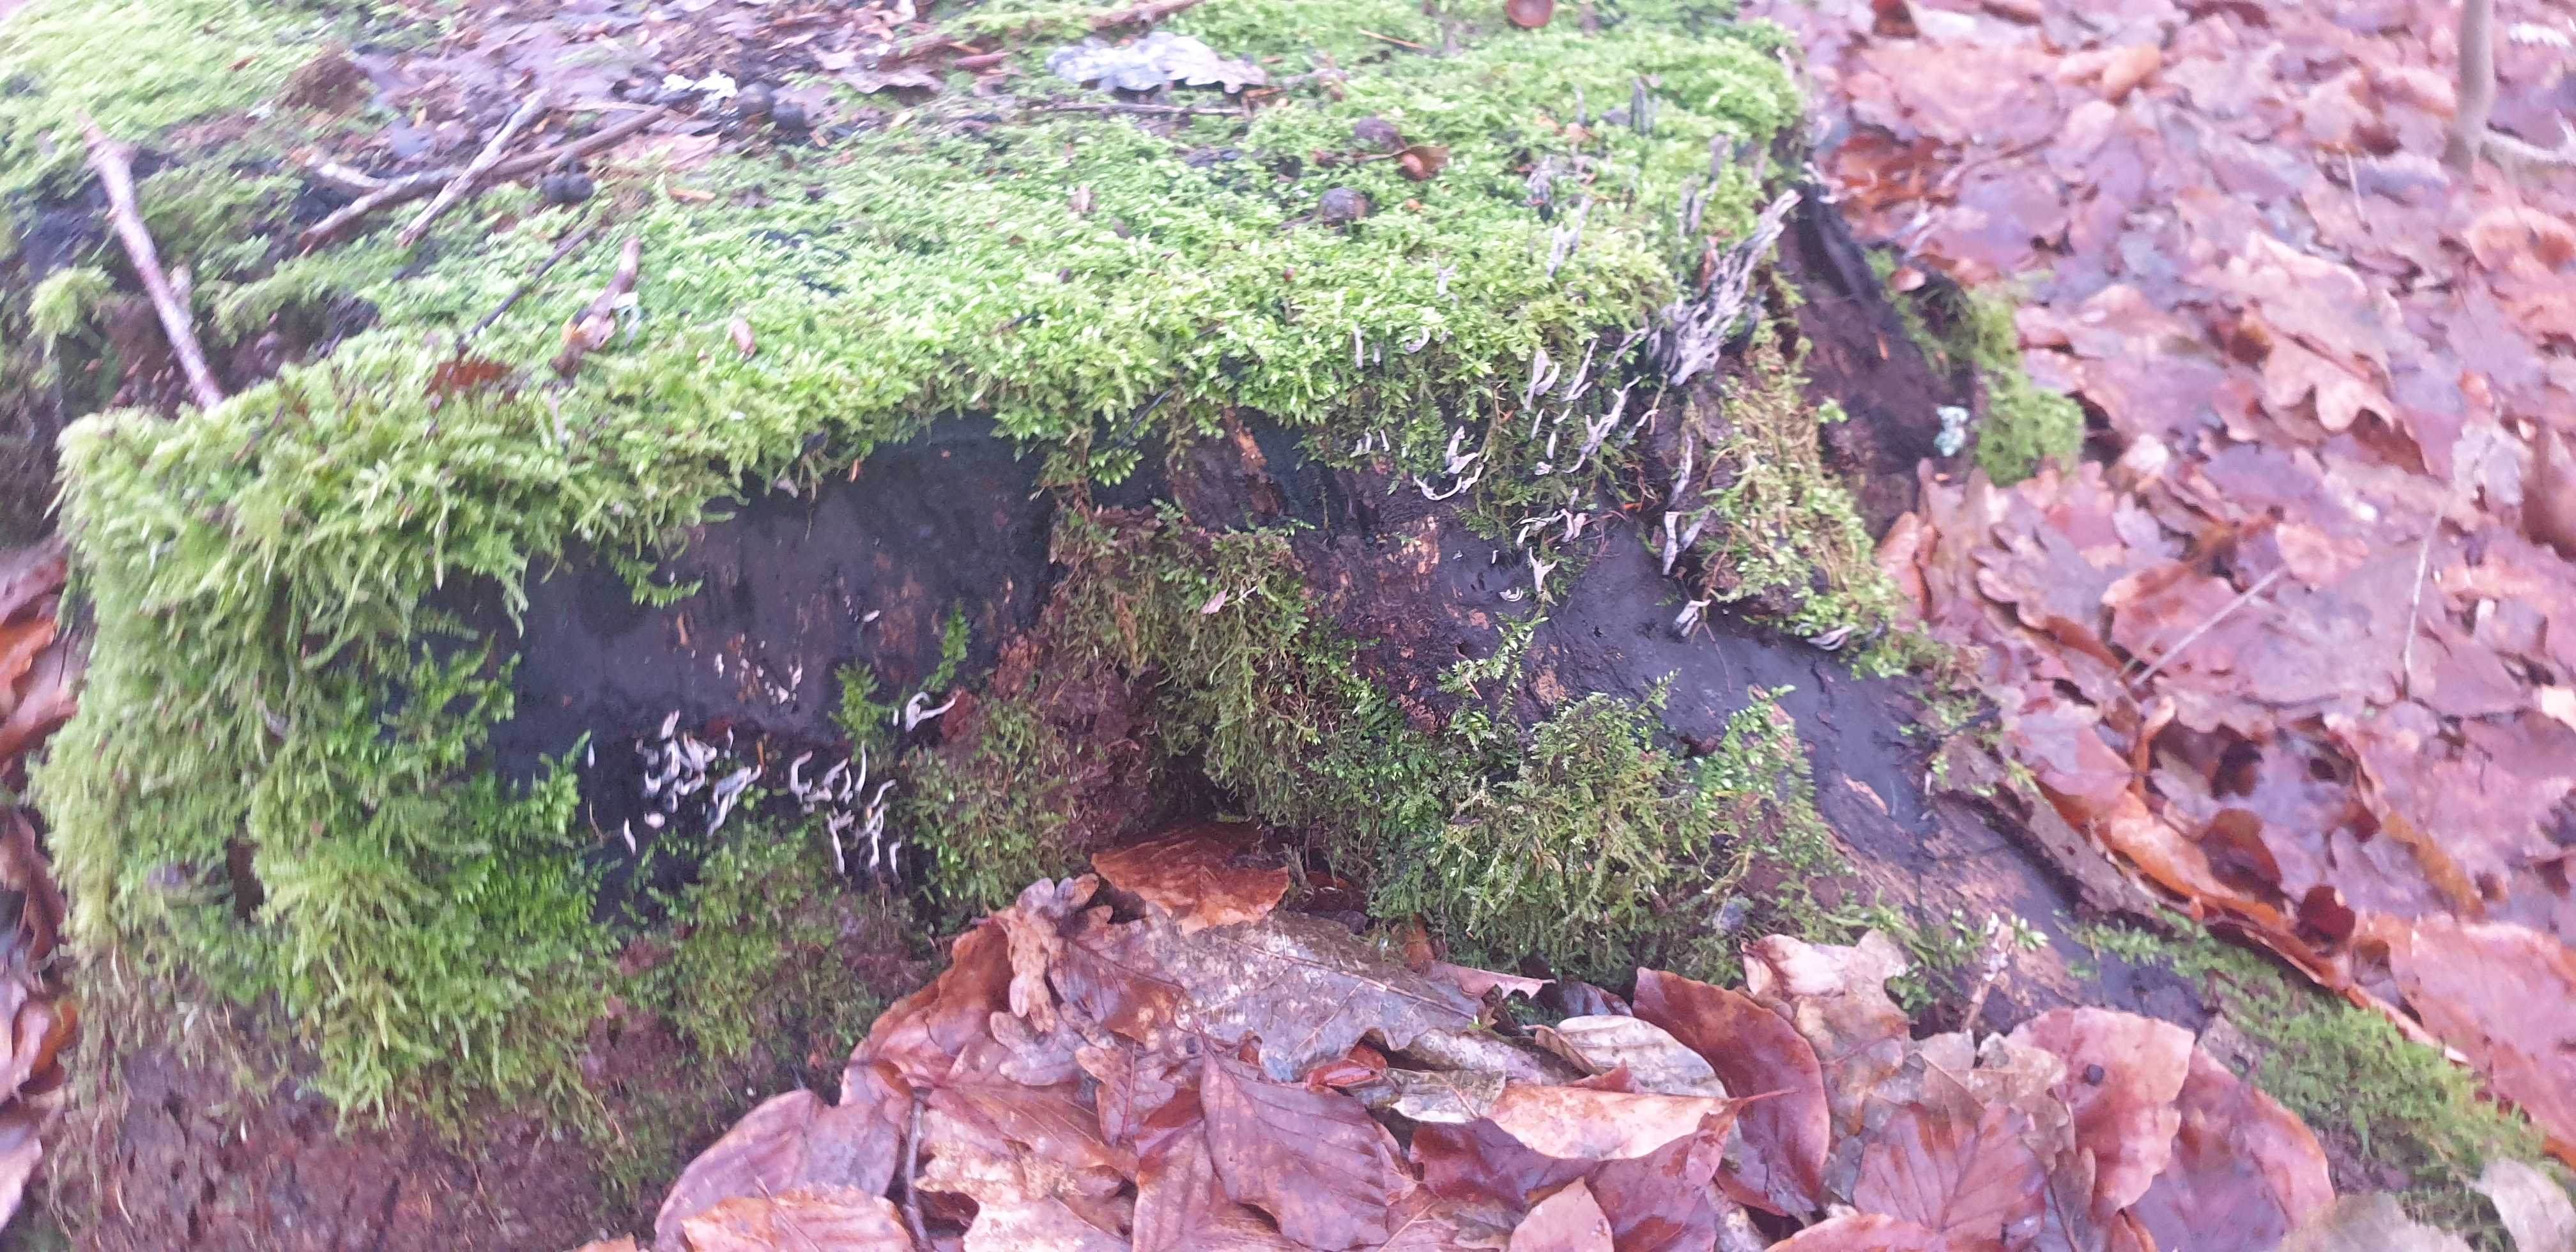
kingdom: Fungi
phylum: Ascomycota
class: Sordariomycetes
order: Xylariales
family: Xylariaceae
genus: Xylaria
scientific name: Xylaria hypoxylon
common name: grenet stødsvamp
